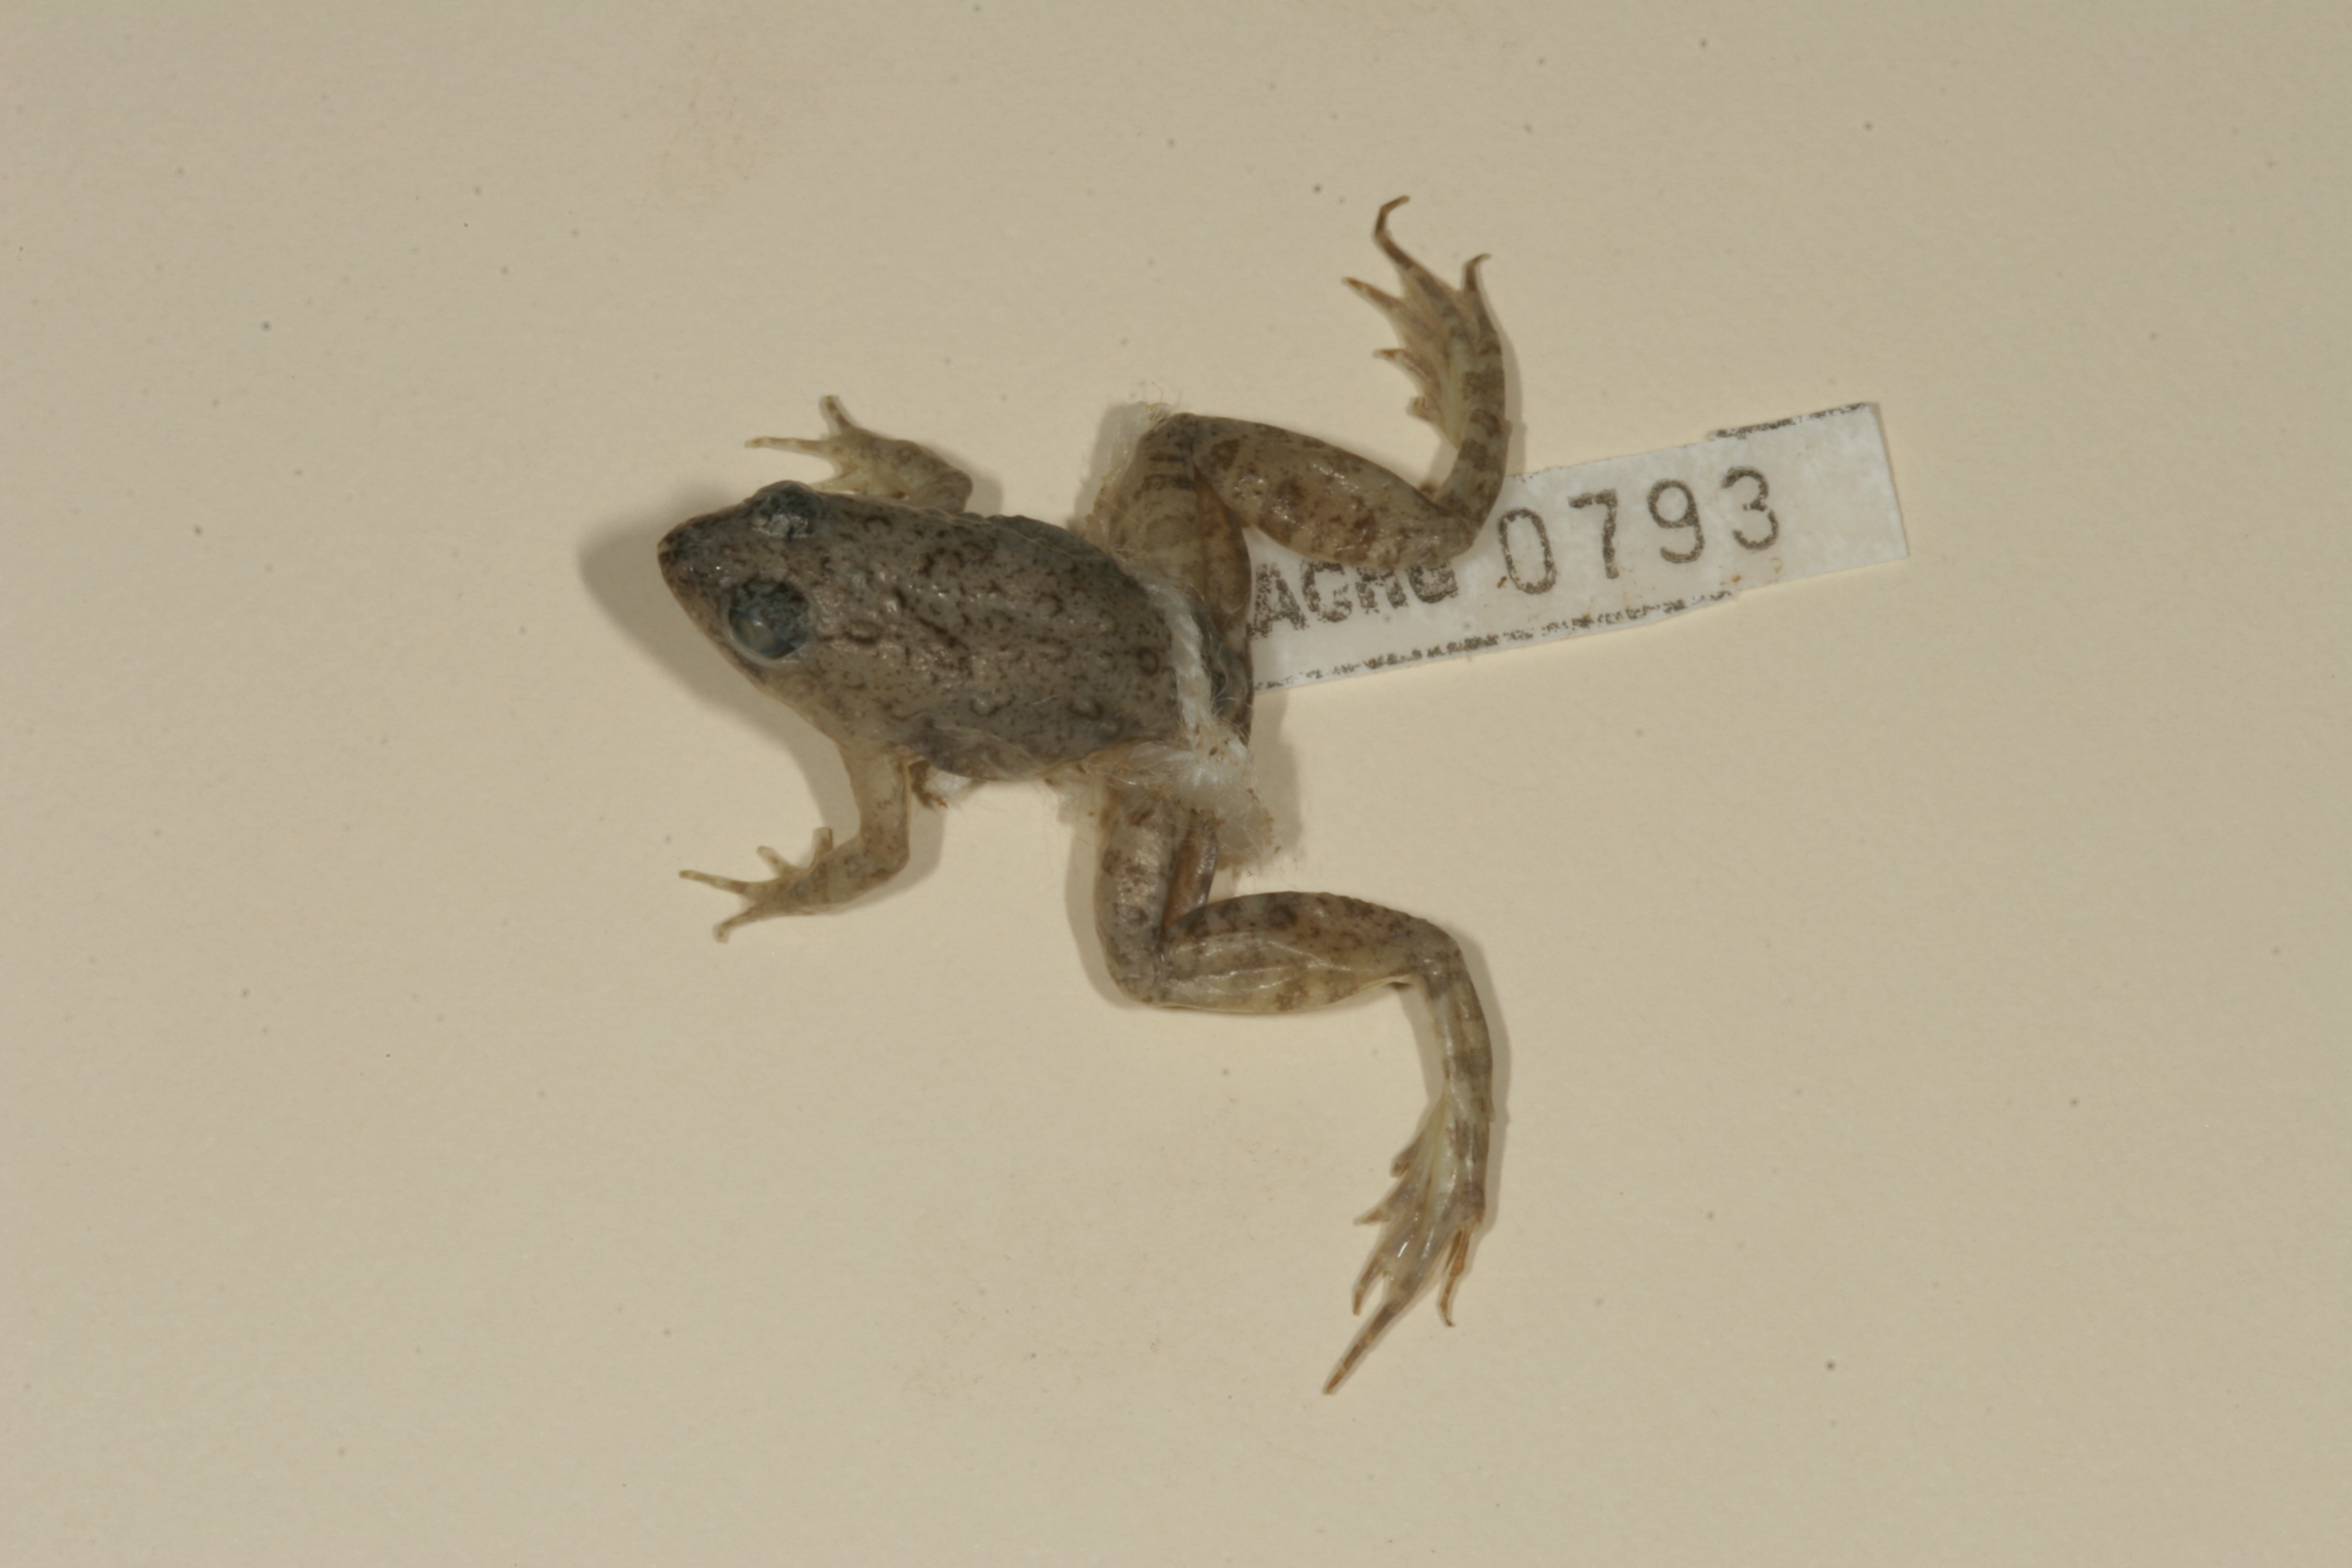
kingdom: Animalia
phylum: Chordata
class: Amphibia
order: Anura
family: Phrynobatrachidae
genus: Phrynobatrachus
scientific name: Phrynobatrachus natalensis
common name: Snoring puddle frog
